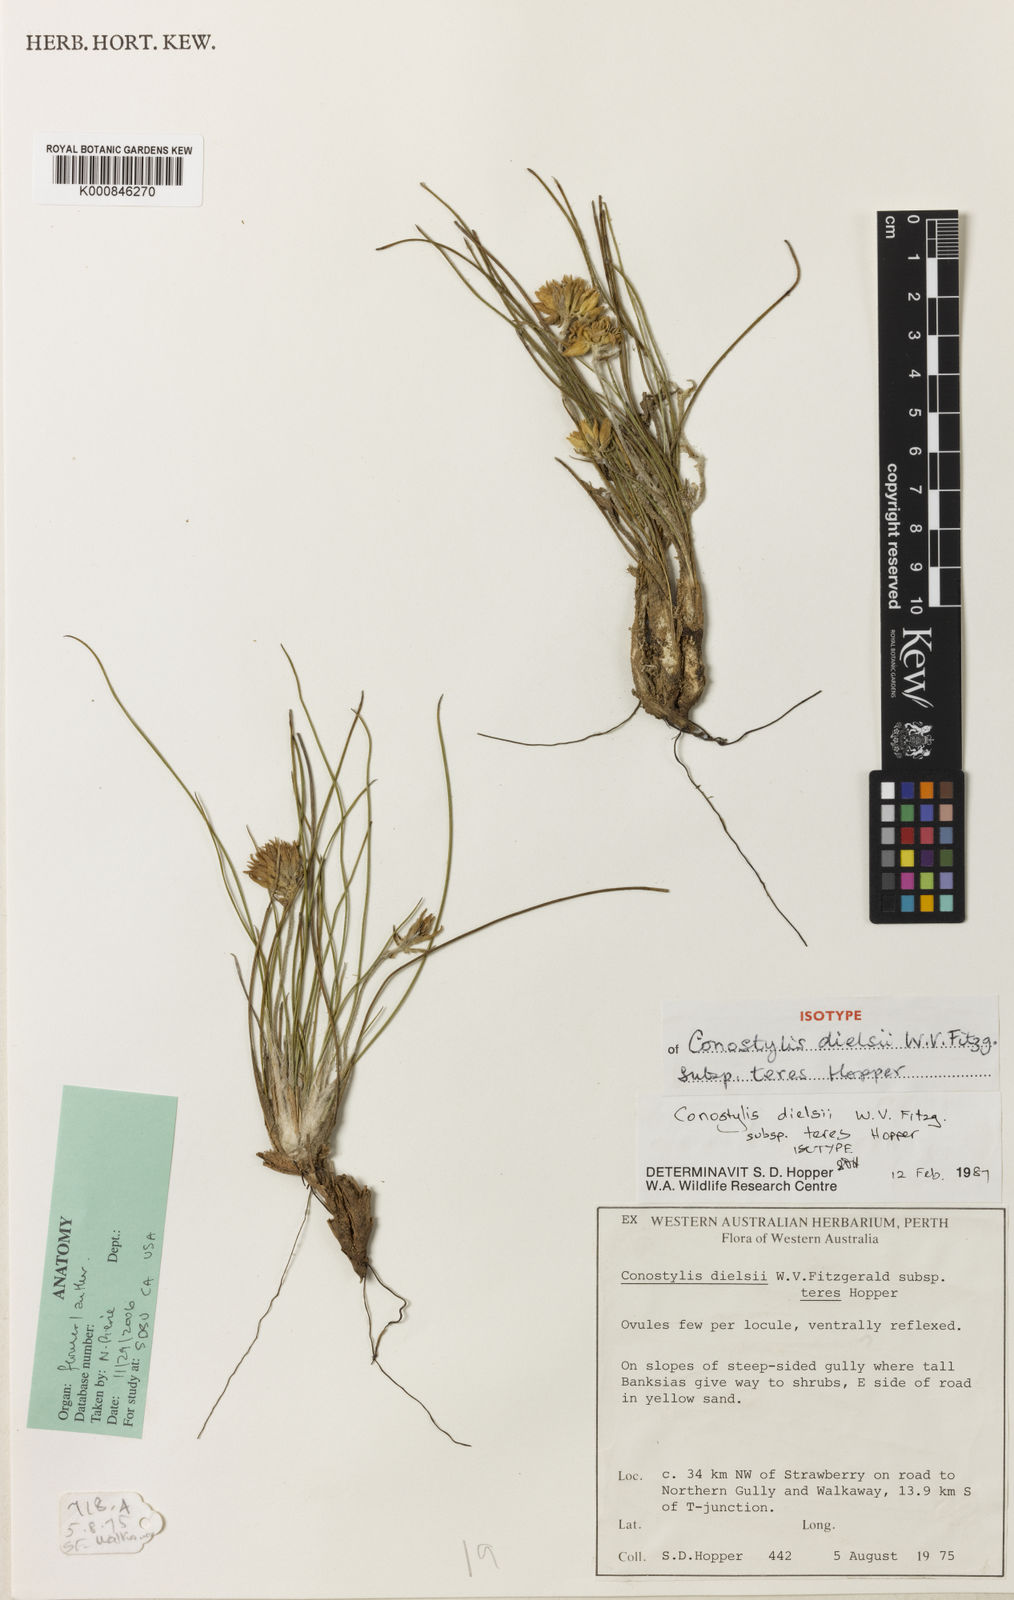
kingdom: Plantae
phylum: Tracheophyta
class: Liliopsida
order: Commelinales
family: Haemodoraceae
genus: Conostylis
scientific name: Conostylis dielsii
